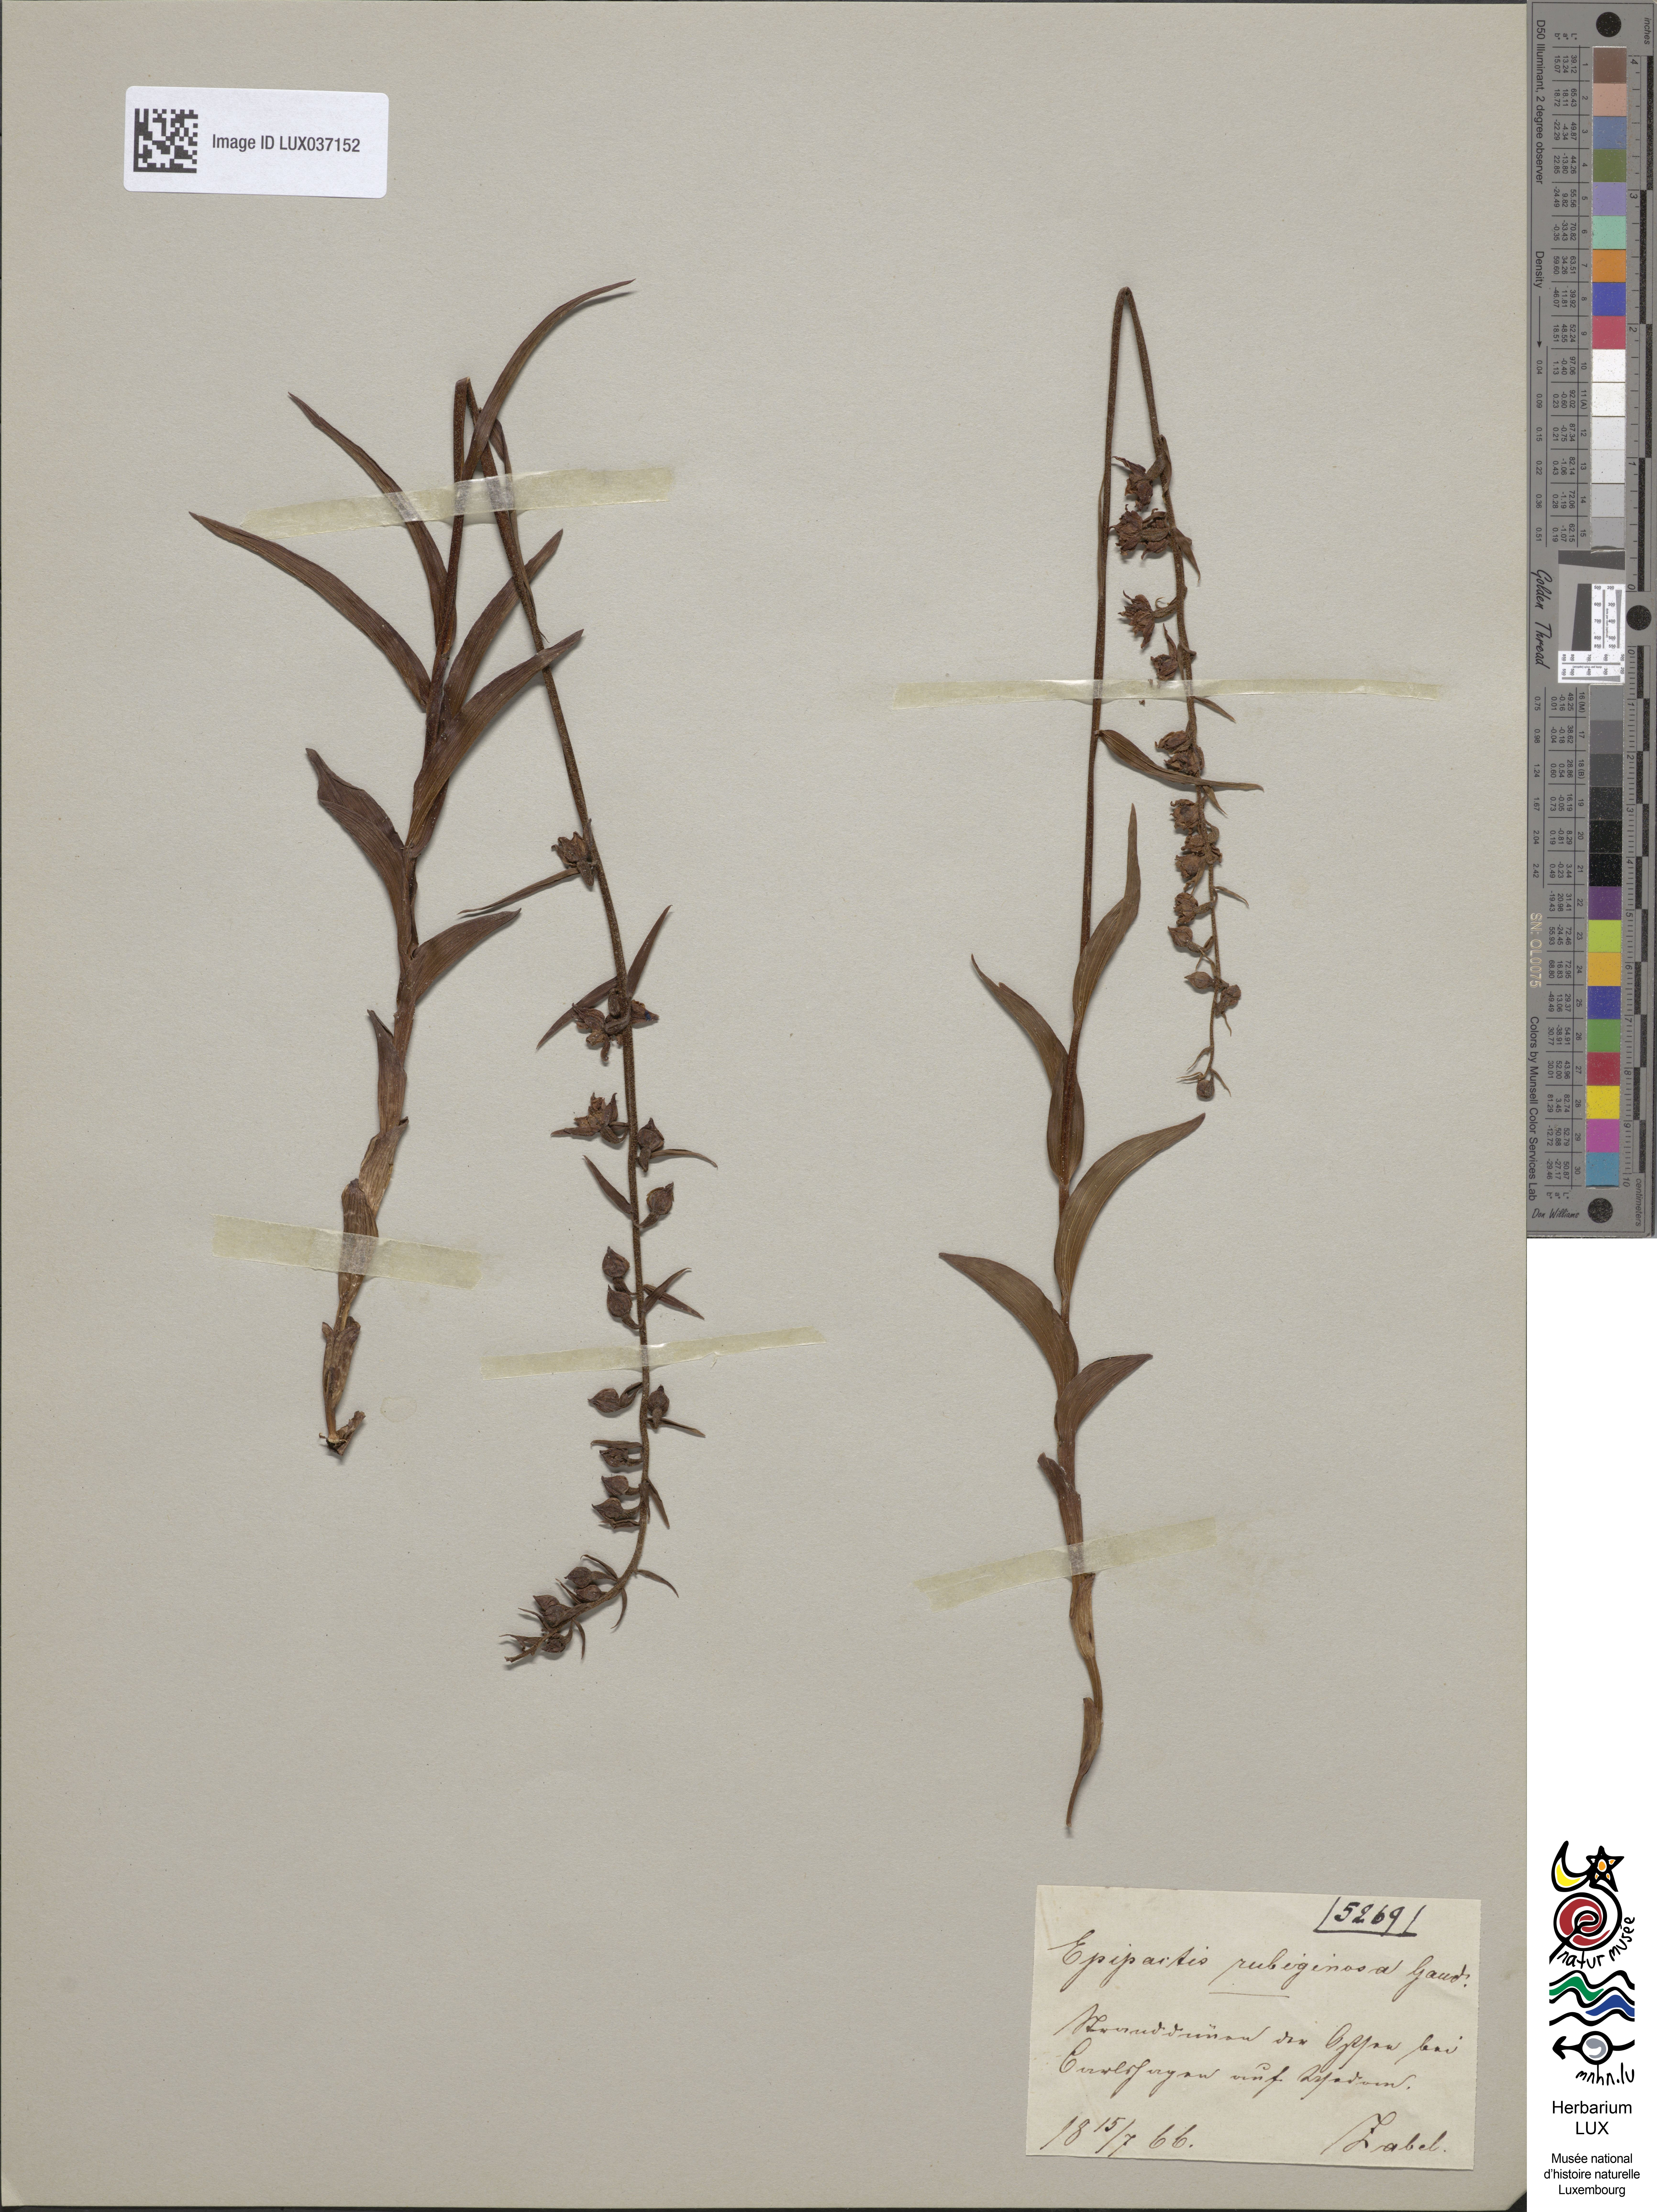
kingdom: Plantae
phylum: Tracheophyta
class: Liliopsida
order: Asparagales
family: Orchidaceae
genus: Epipactis
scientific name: Epipactis atrorubens
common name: Dark-red helleborine
